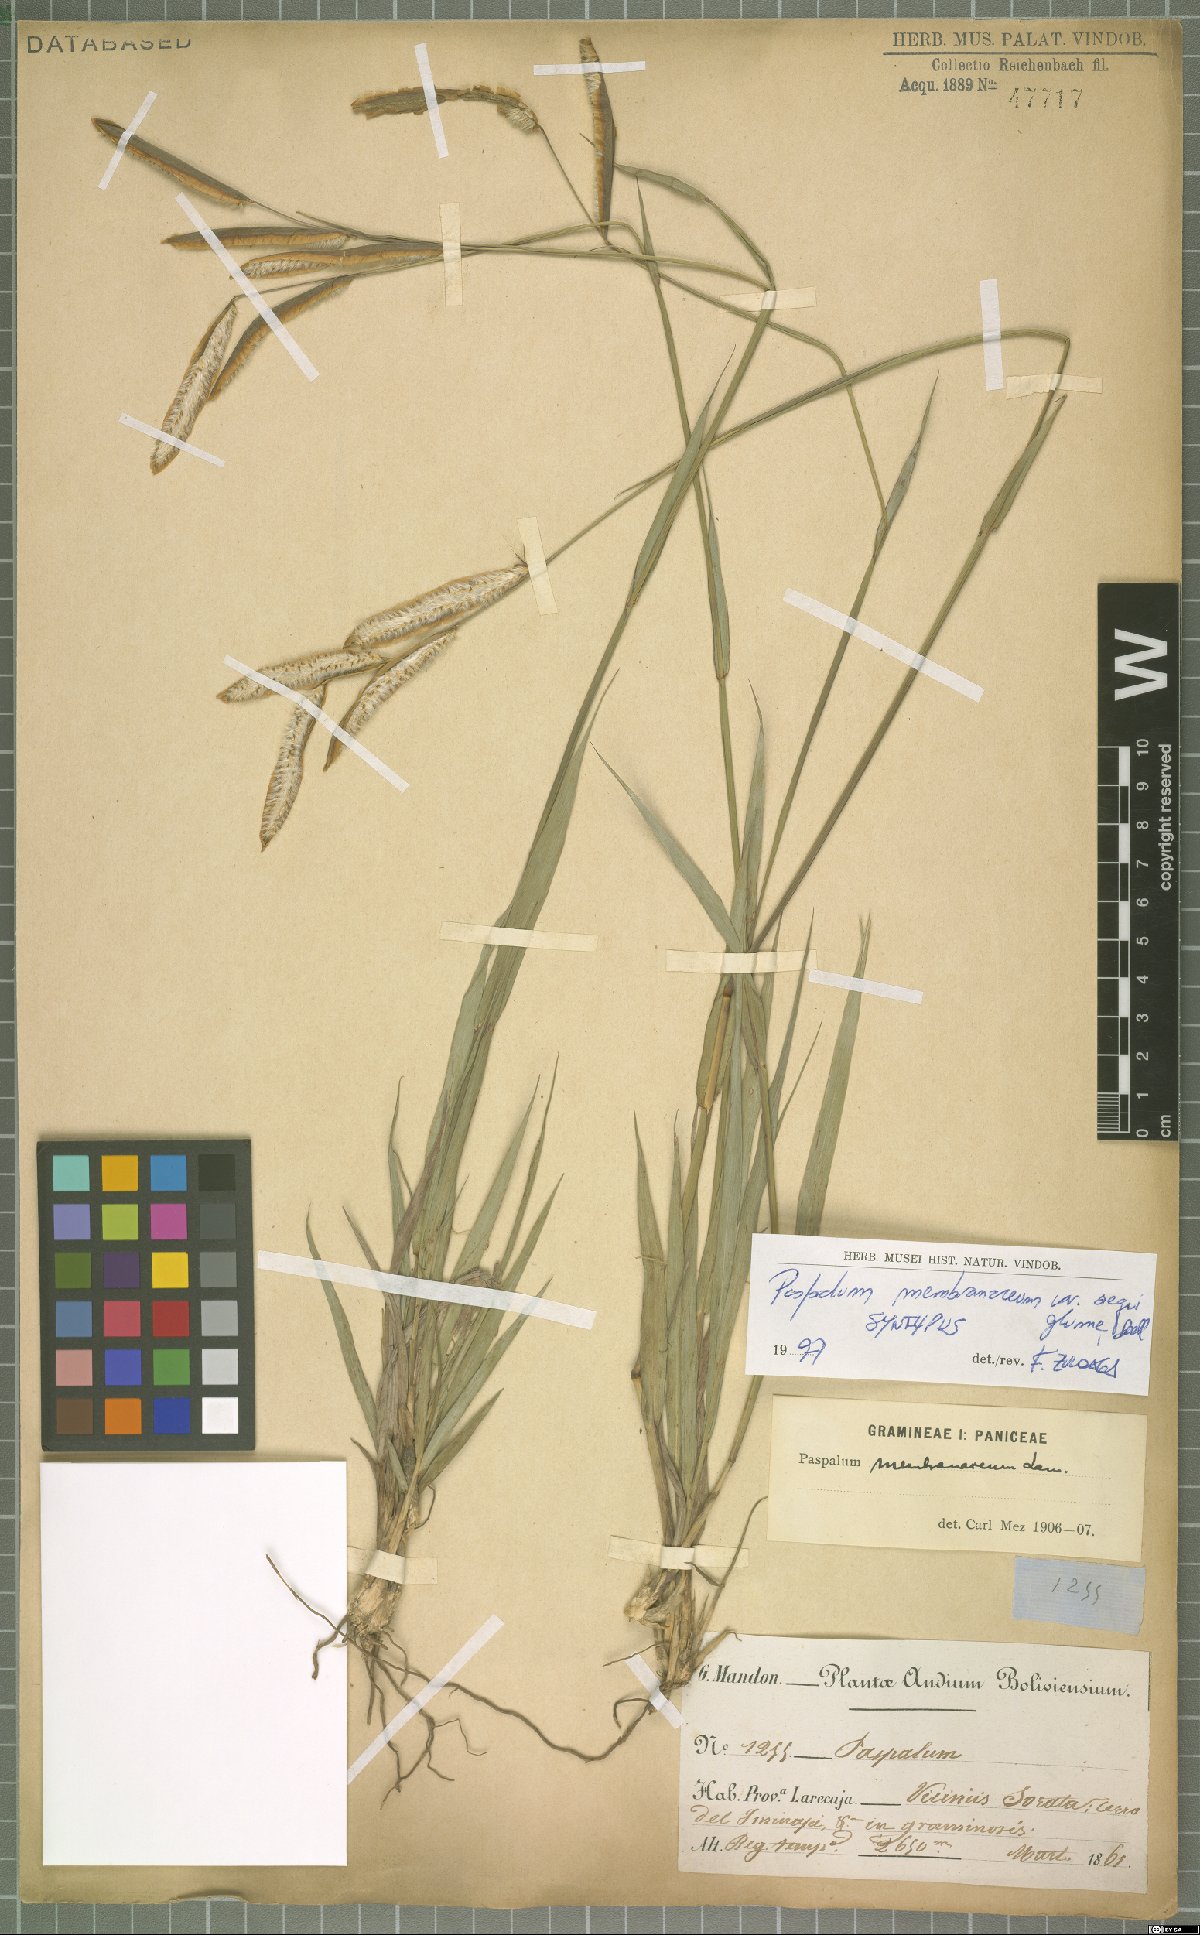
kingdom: Plantae
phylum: Tracheophyta
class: Liliopsida
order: Poales
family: Poaceae
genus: Paspalum
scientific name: Paspalum ceresia
